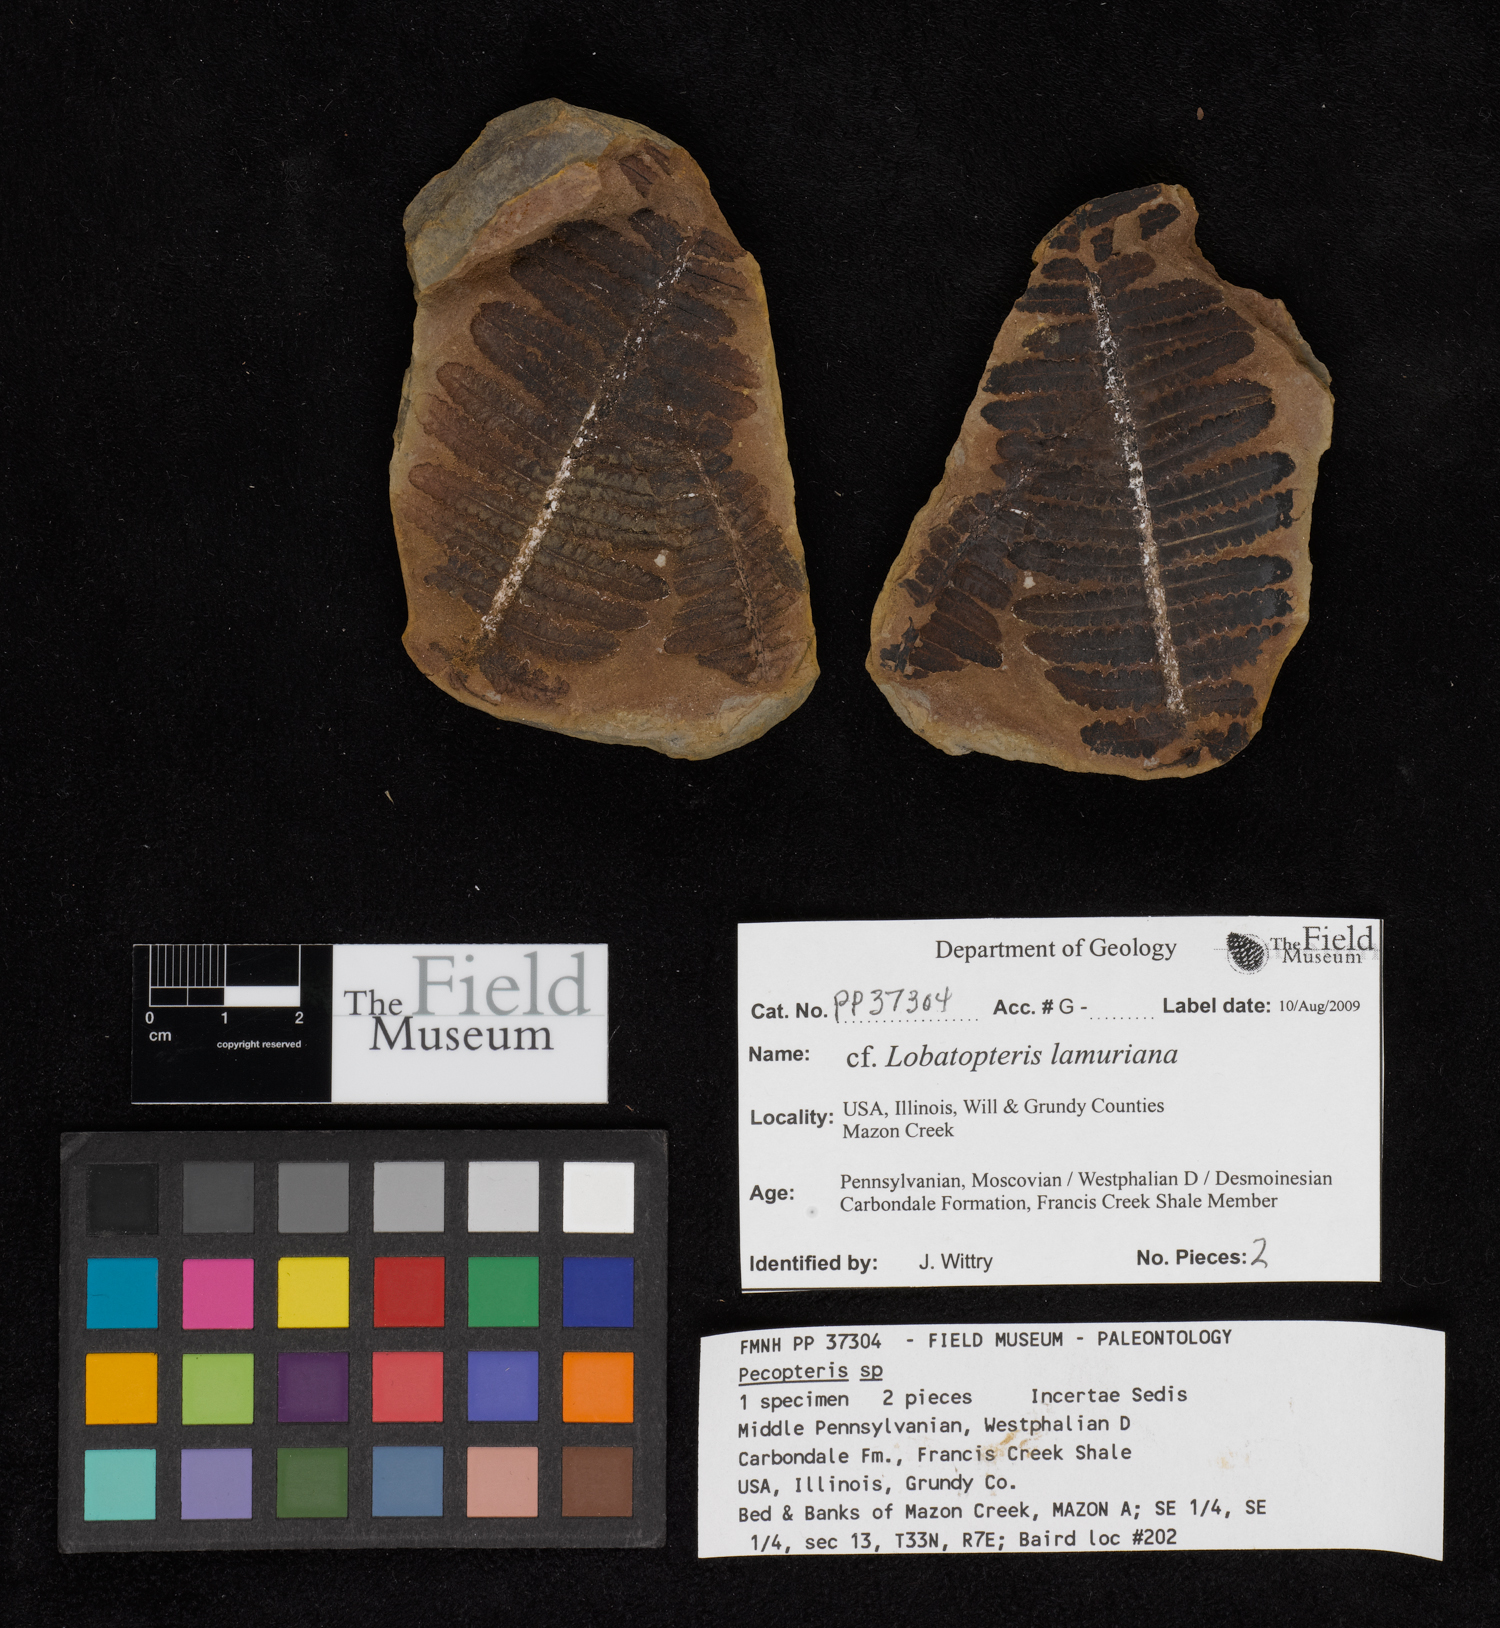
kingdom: Plantae
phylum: Tracheophyta
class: Polypodiopsida
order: Marattiales
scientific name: Marattiales
